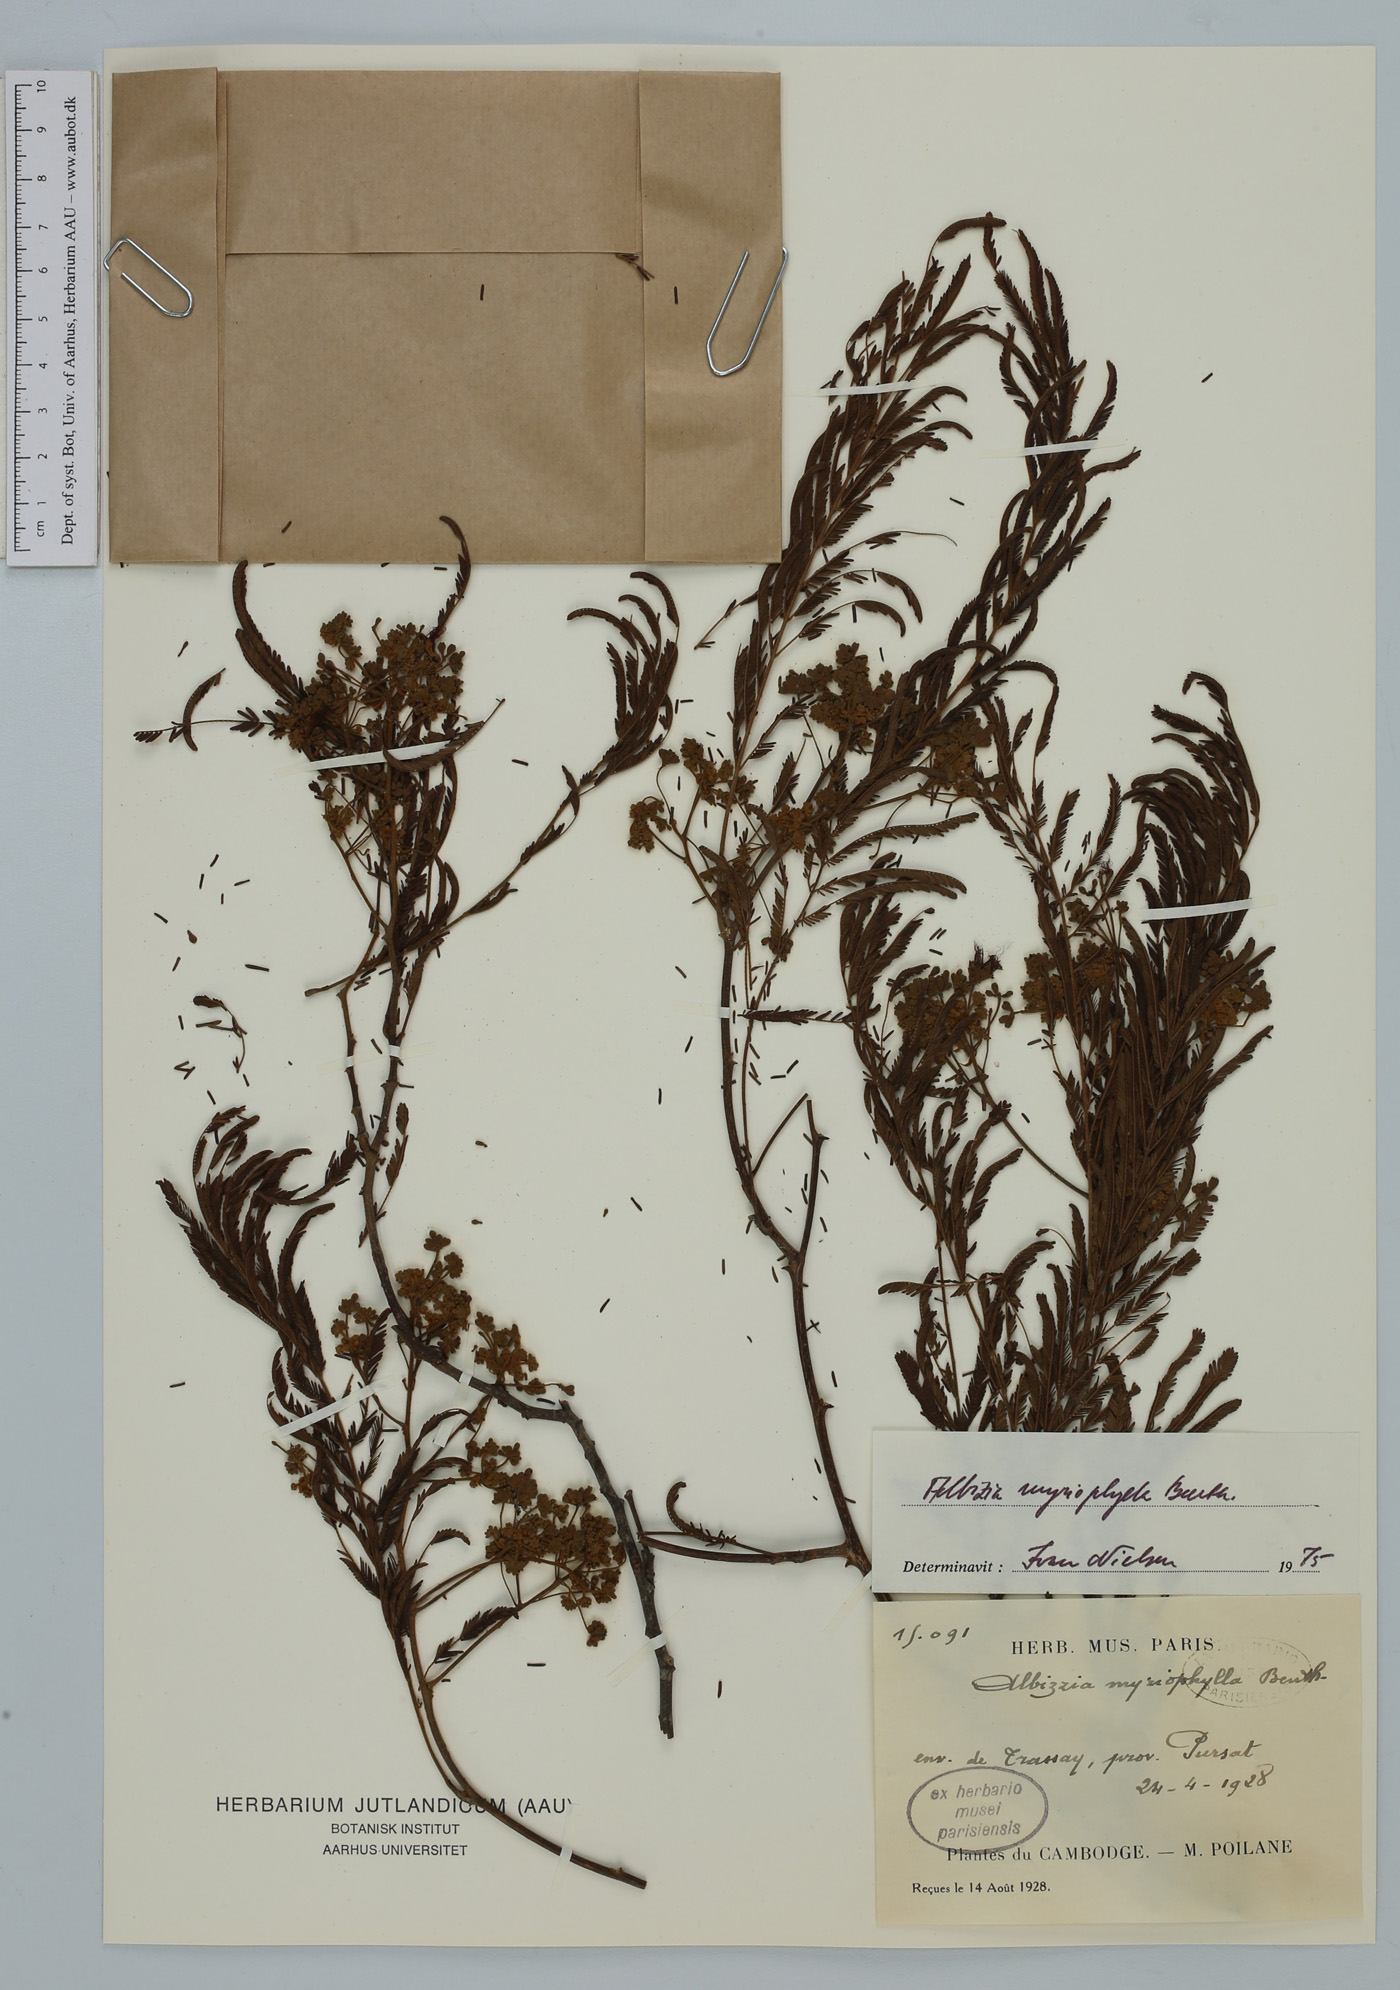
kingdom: Plantae
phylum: Tracheophyta
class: Magnoliopsida
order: Fabales
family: Fabaceae
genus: Albizia
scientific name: Albizia myriophylla
